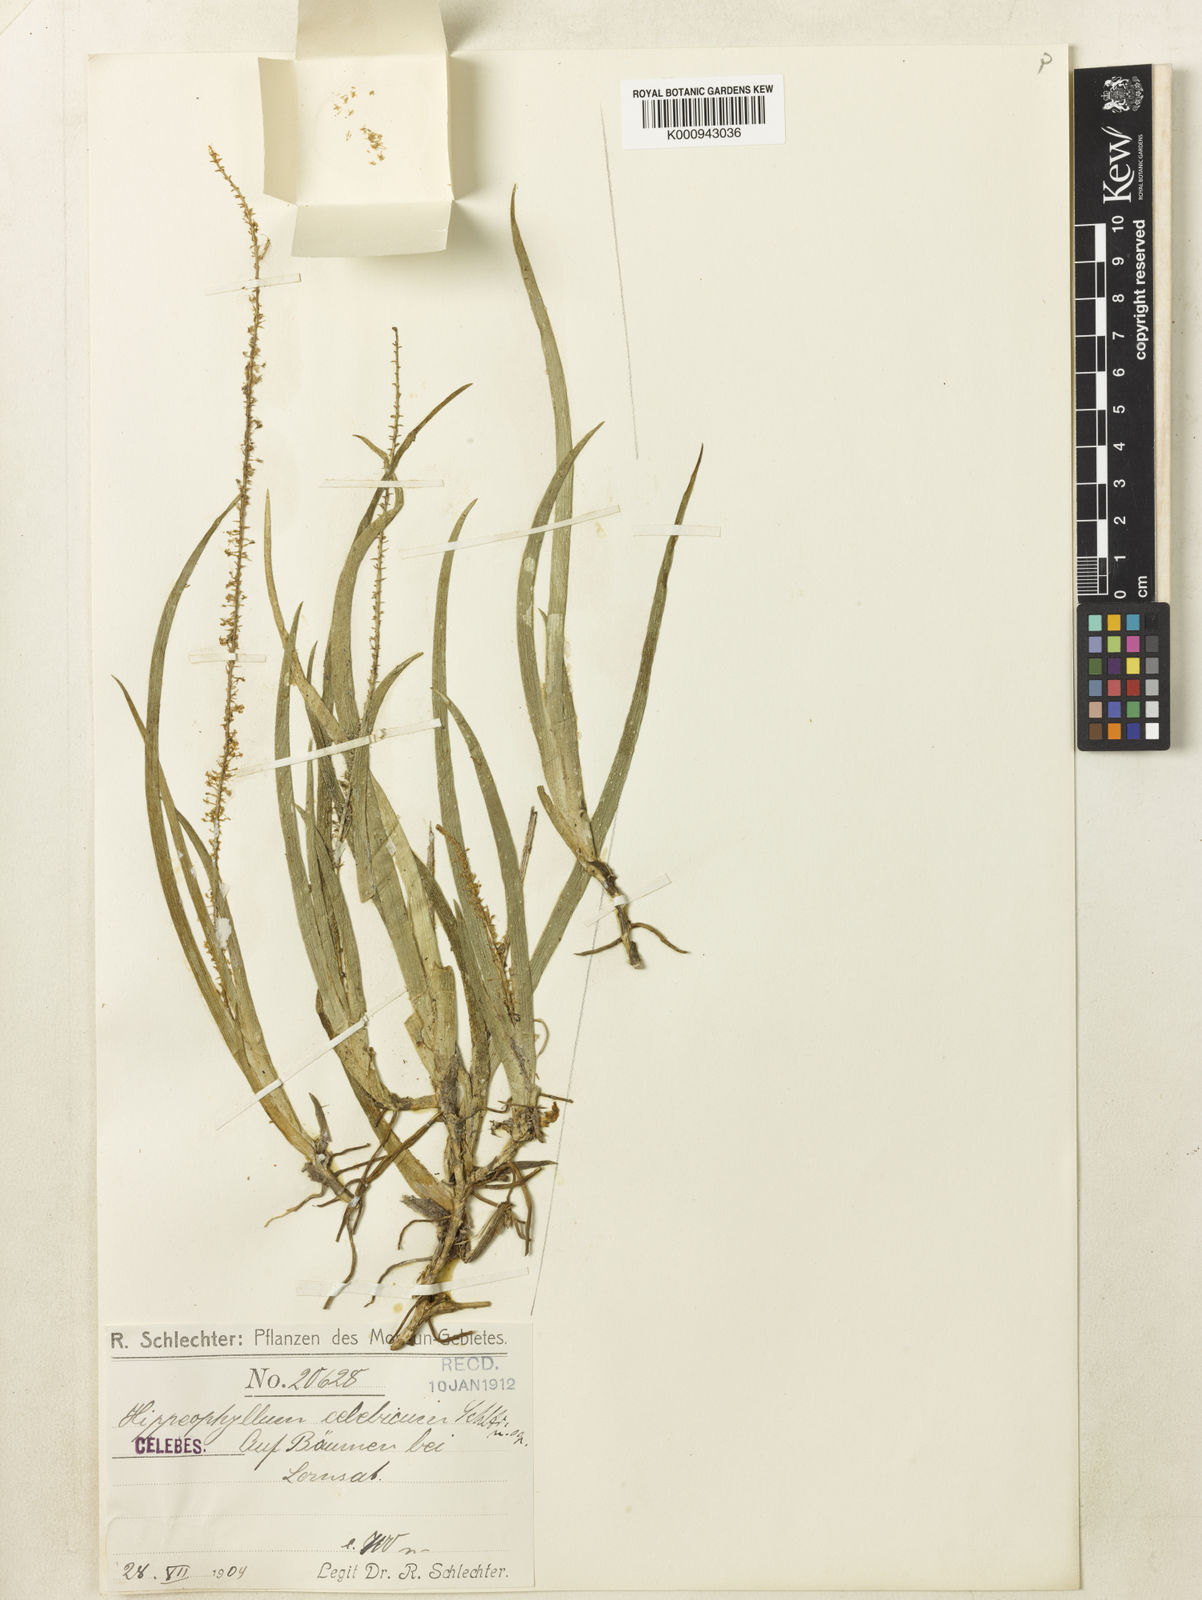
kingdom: Plantae
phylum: Tracheophyta
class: Liliopsida
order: Asparagales
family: Orchidaceae
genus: Hippeophyllum
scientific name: Hippeophyllum celebicum
